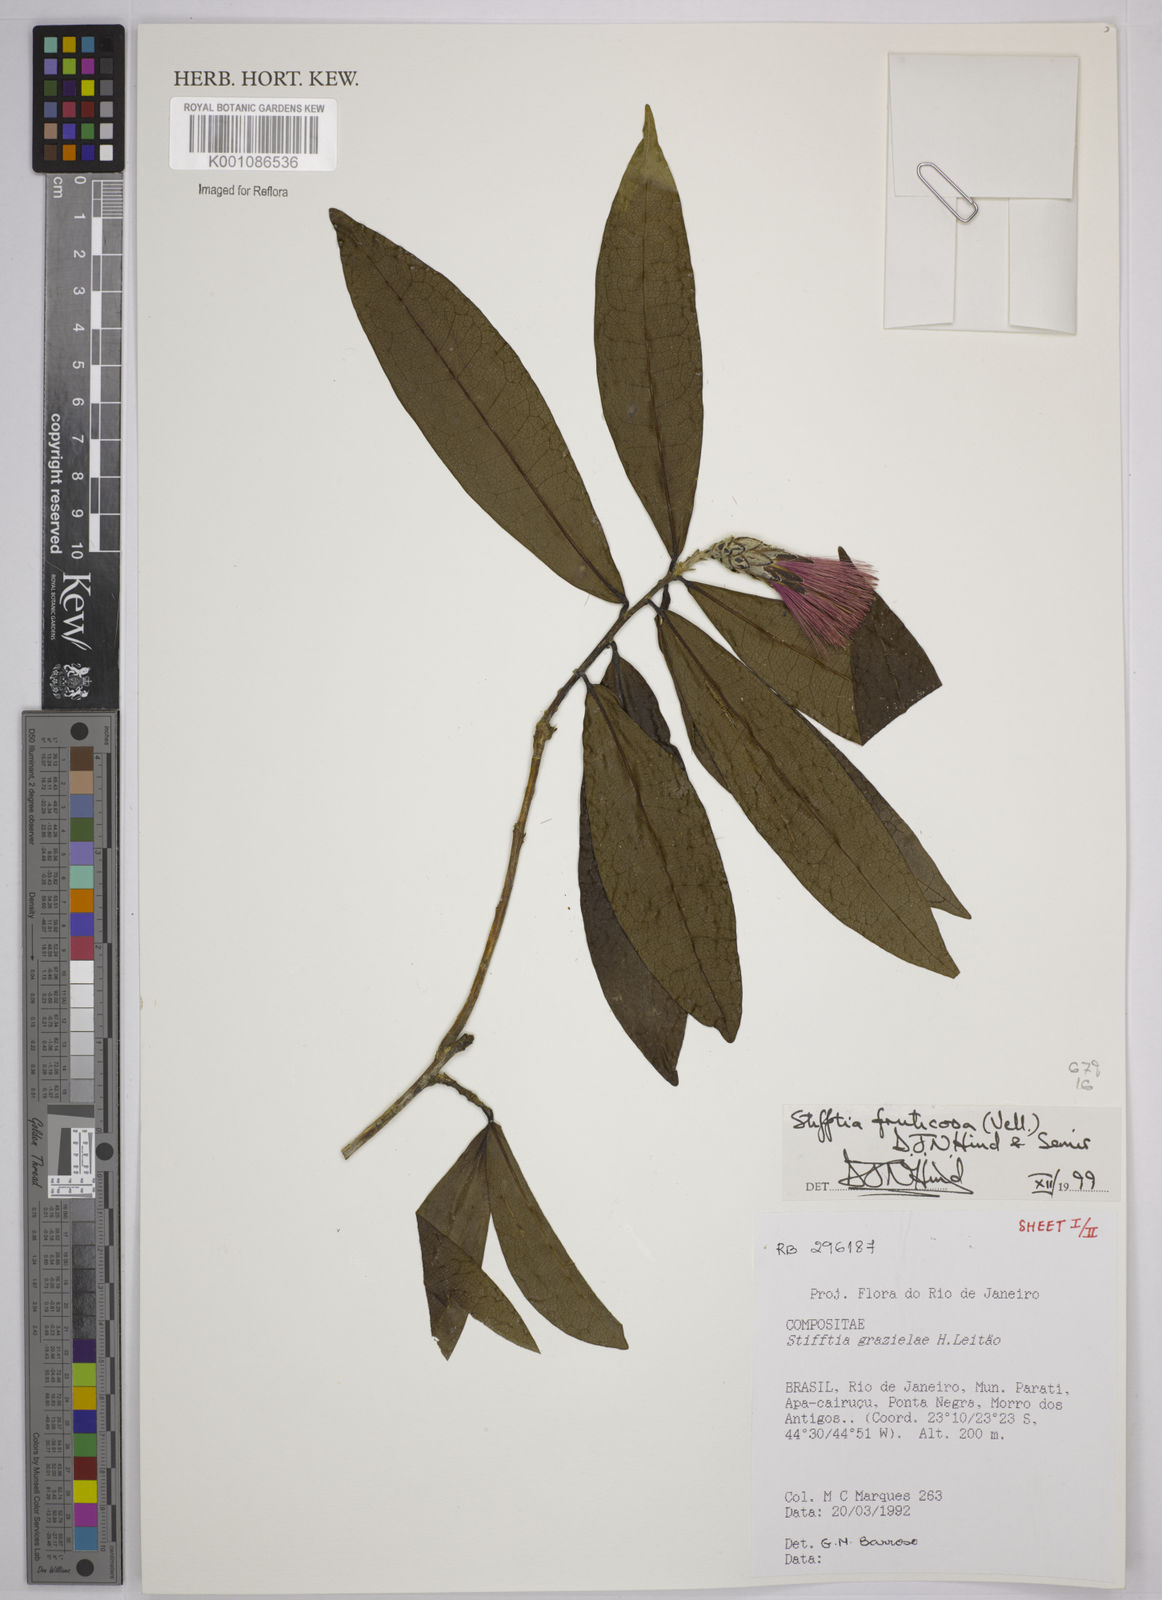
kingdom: Plantae
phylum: Tracheophyta
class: Magnoliopsida
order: Asterales
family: Asteraceae
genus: Stifftia
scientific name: Stifftia fruticosa
